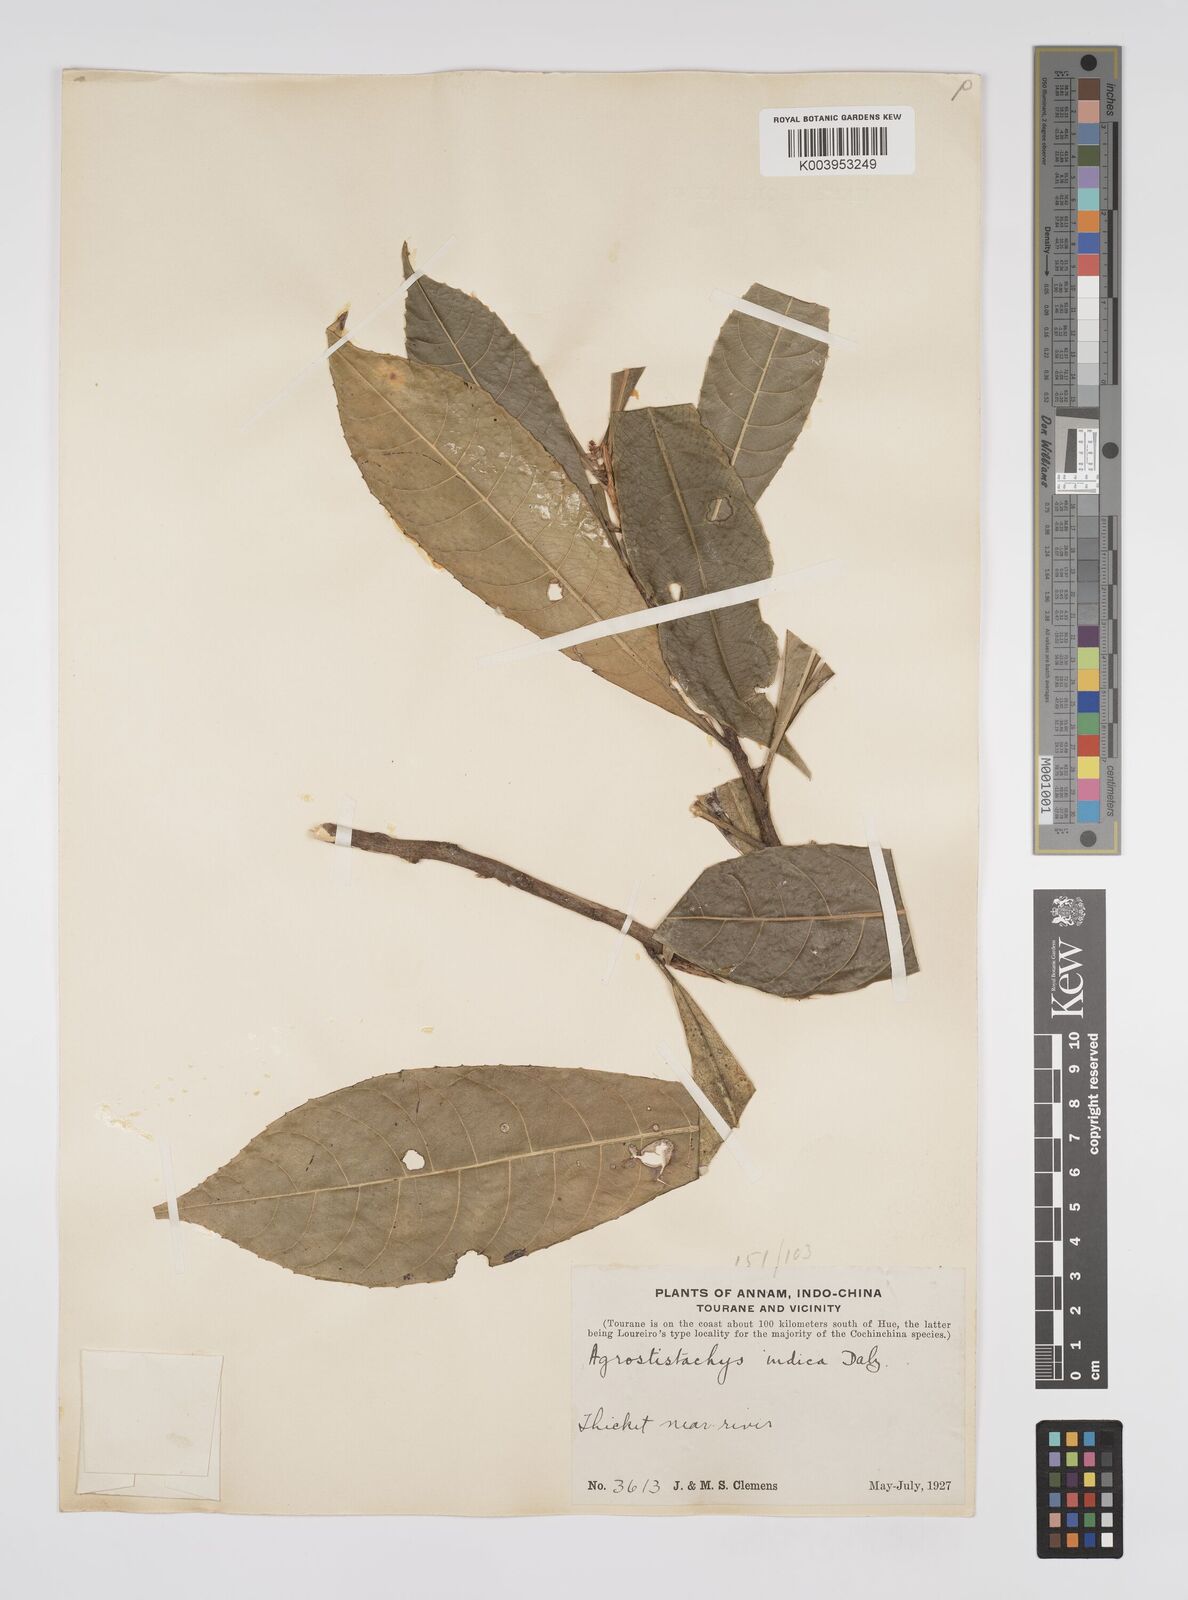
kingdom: Plantae
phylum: Tracheophyta
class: Magnoliopsida
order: Malpighiales
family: Euphorbiaceae
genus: Agrostistachys
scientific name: Agrostistachys indica
